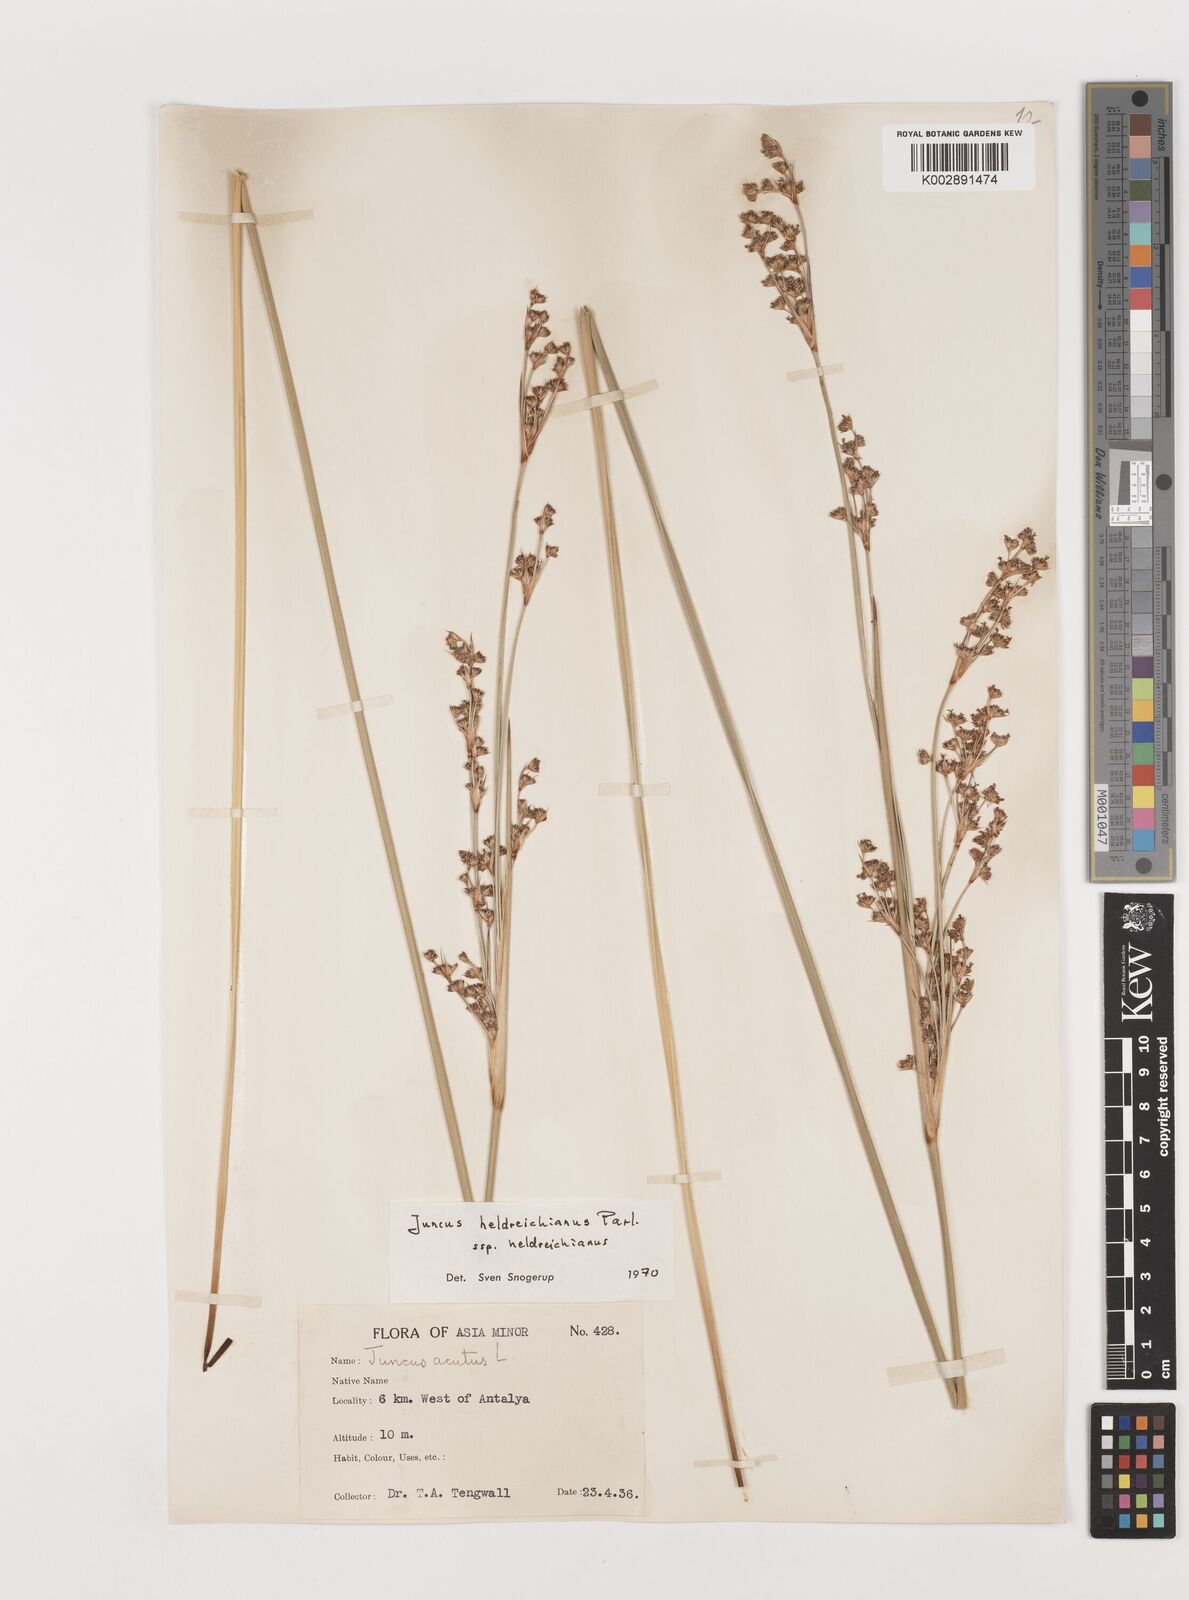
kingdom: Plantae
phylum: Tracheophyta
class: Liliopsida
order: Poales
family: Juncaceae
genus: Juncus
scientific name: Juncus heldreichianus
